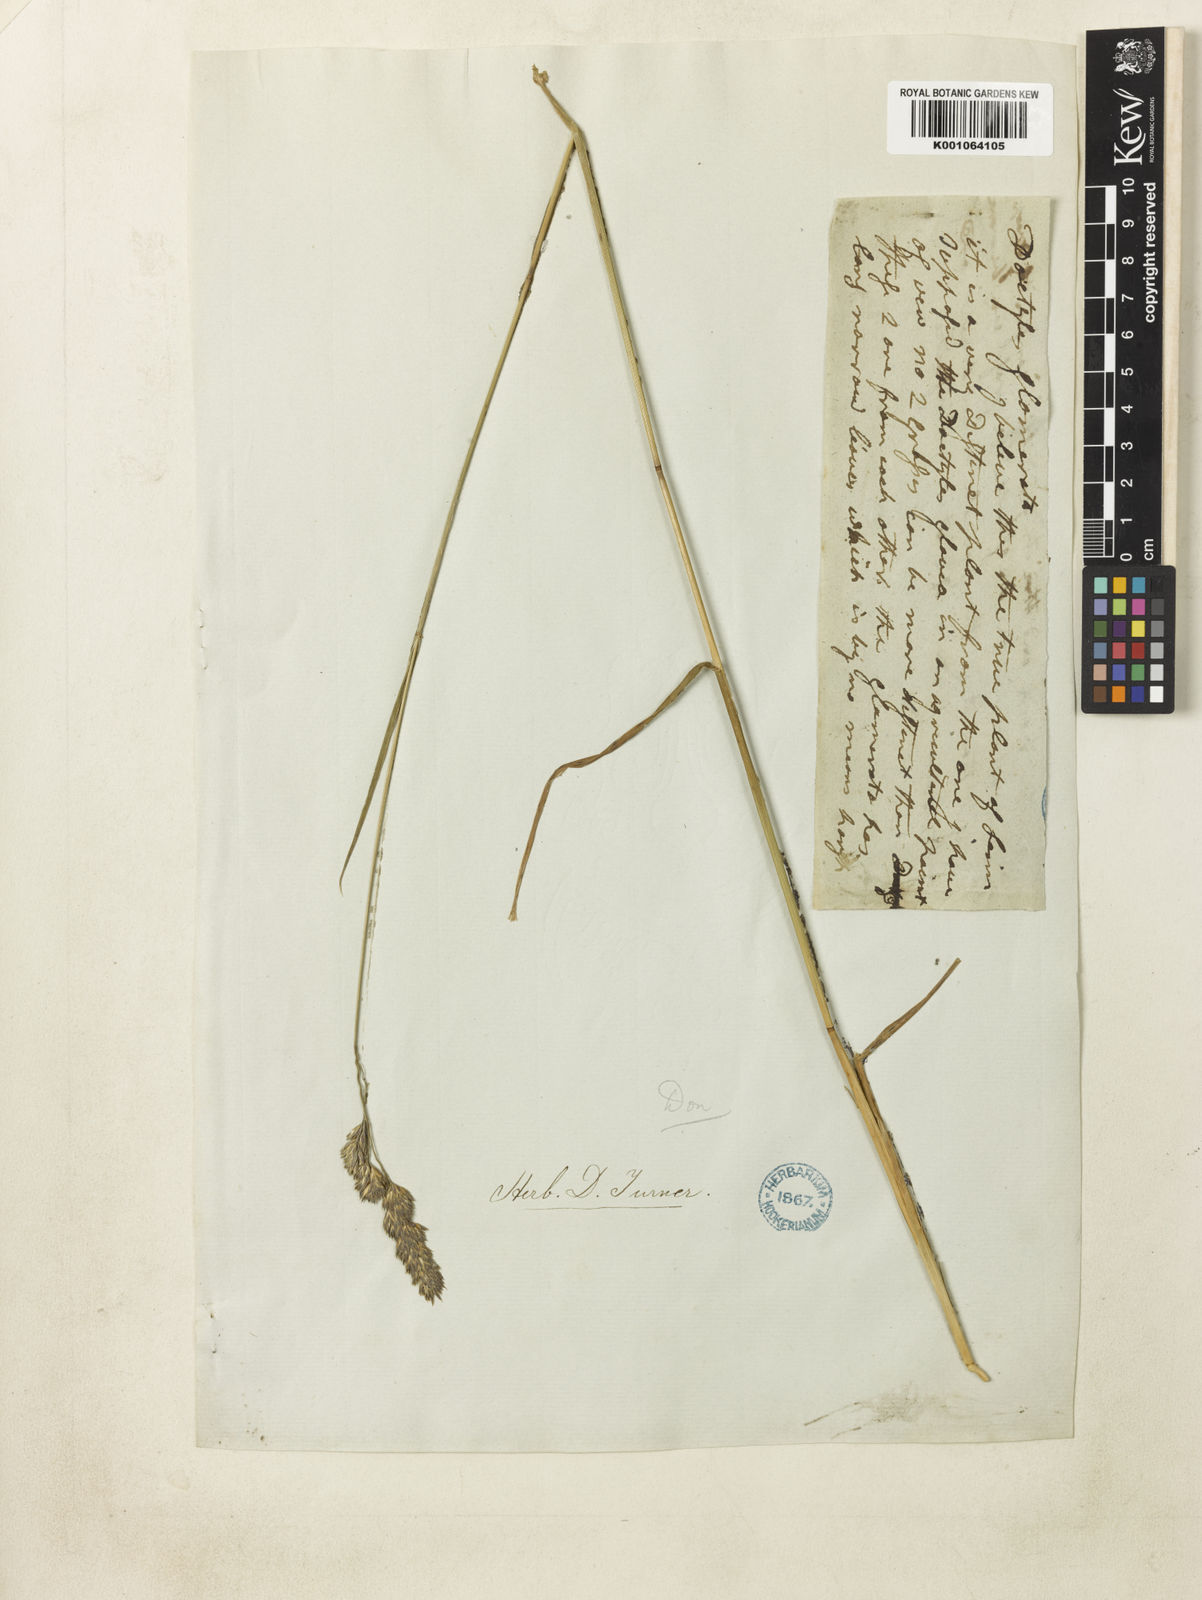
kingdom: Plantae
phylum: Tracheophyta
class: Liliopsida
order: Poales
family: Poaceae
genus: Dactylis
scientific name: Dactylis glomerata
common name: Orchardgrass
